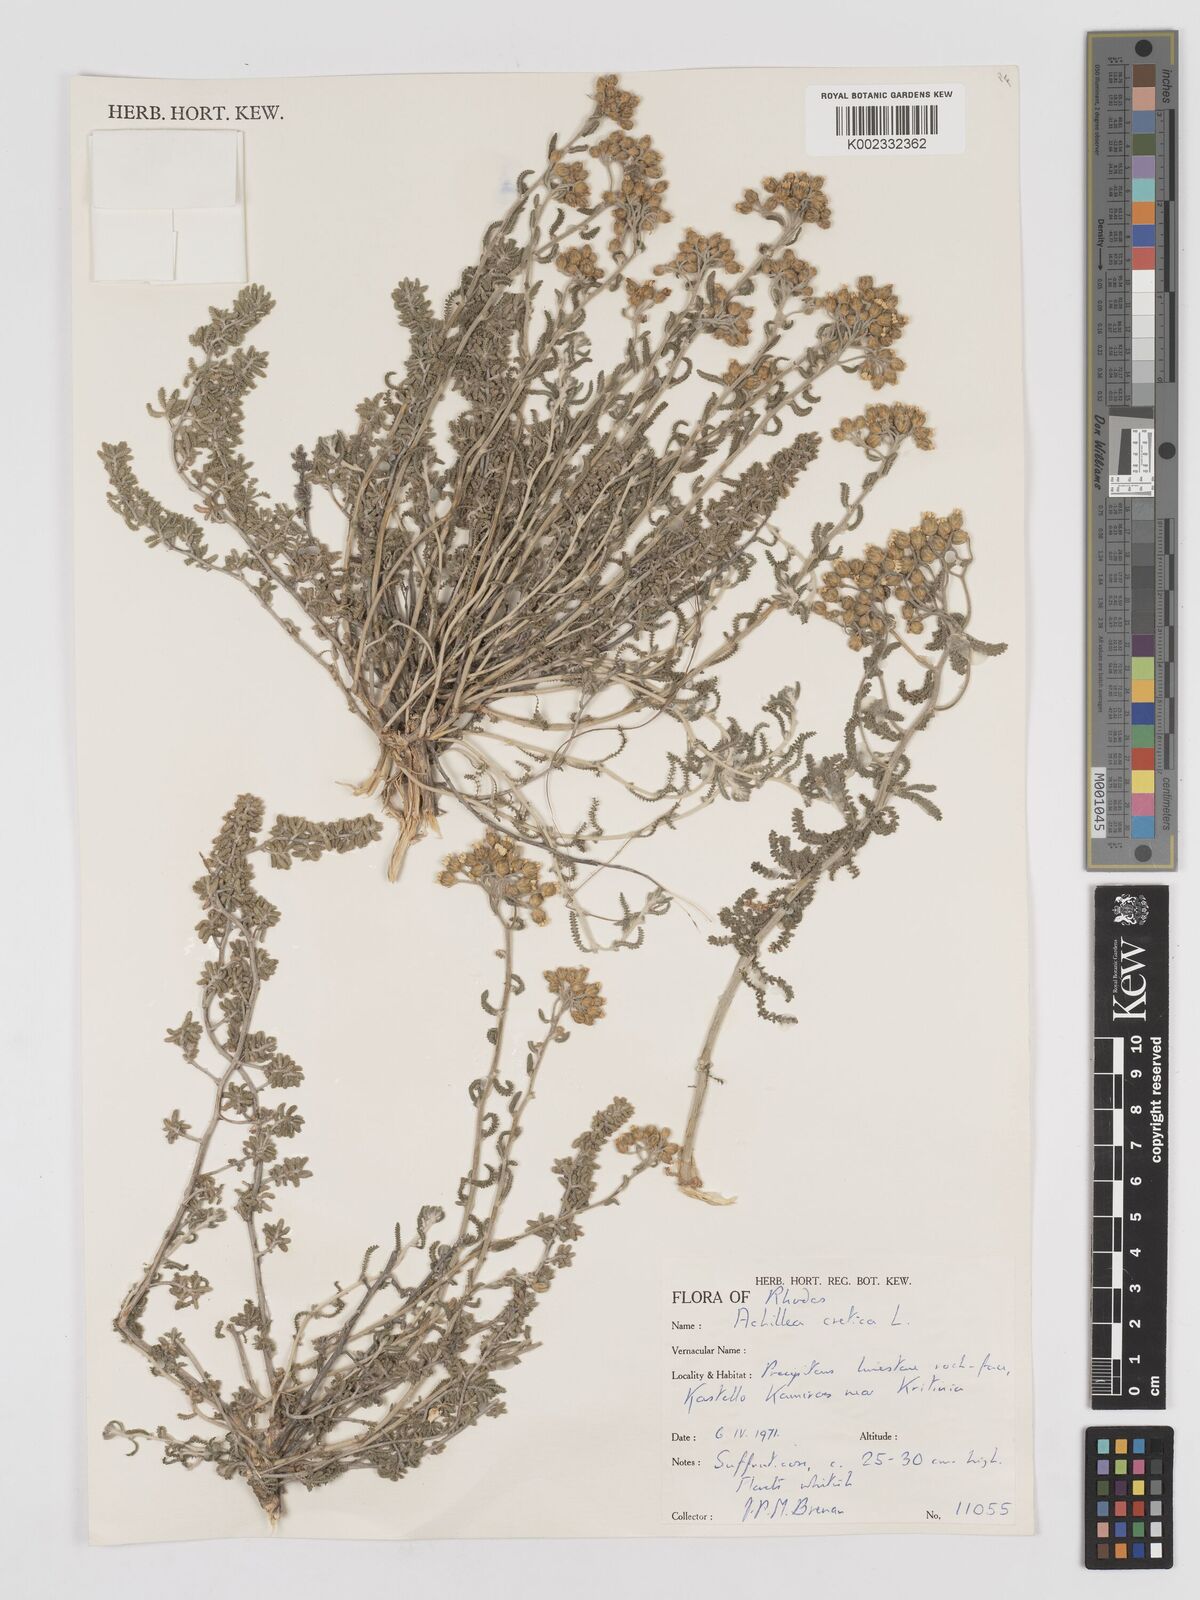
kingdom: Plantae
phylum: Tracheophyta
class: Magnoliopsida
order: Asterales
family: Asteraceae
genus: Achillea
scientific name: Achillea cretica
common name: Chamomile-leaved lavender-cotton
